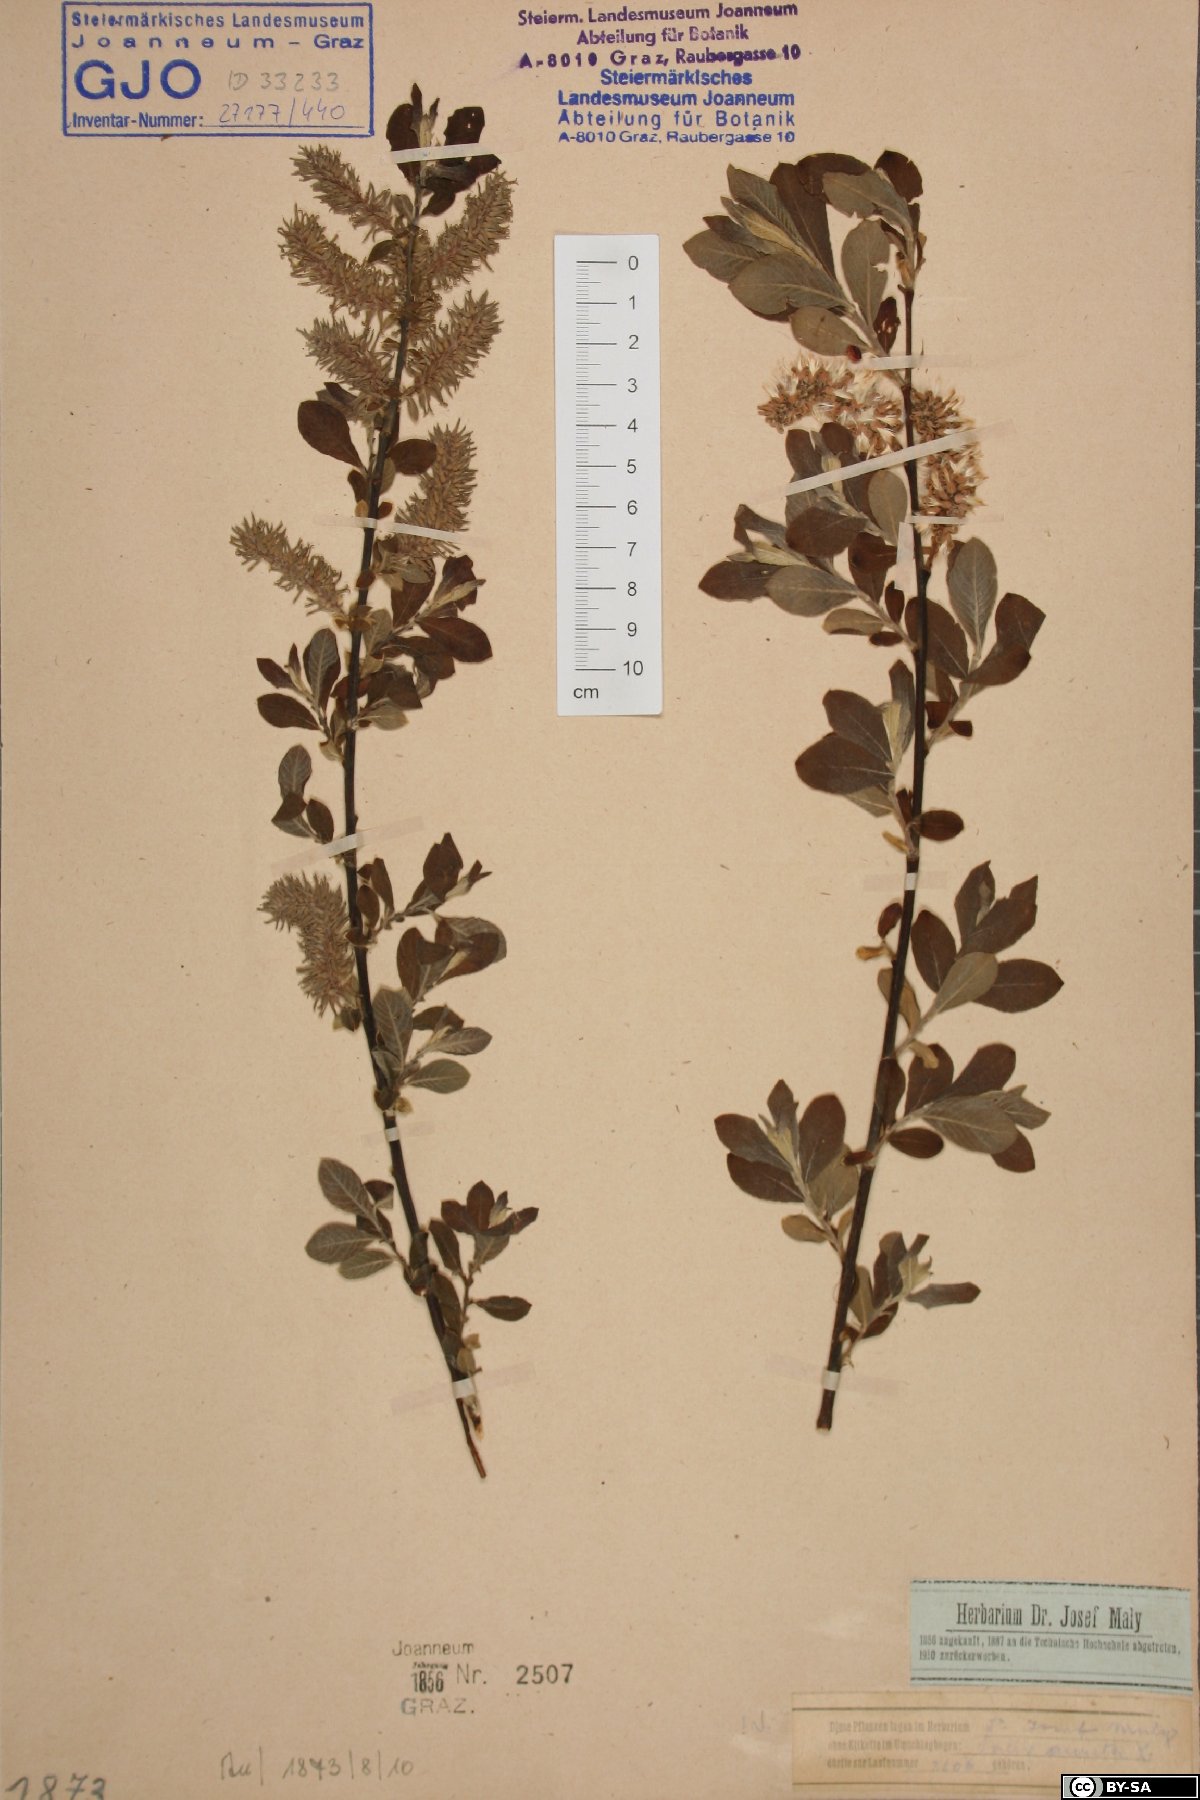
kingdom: Plantae
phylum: Tracheophyta
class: Magnoliopsida
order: Malpighiales
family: Salicaceae
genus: Salix
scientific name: Salix aurita
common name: Eared willow
